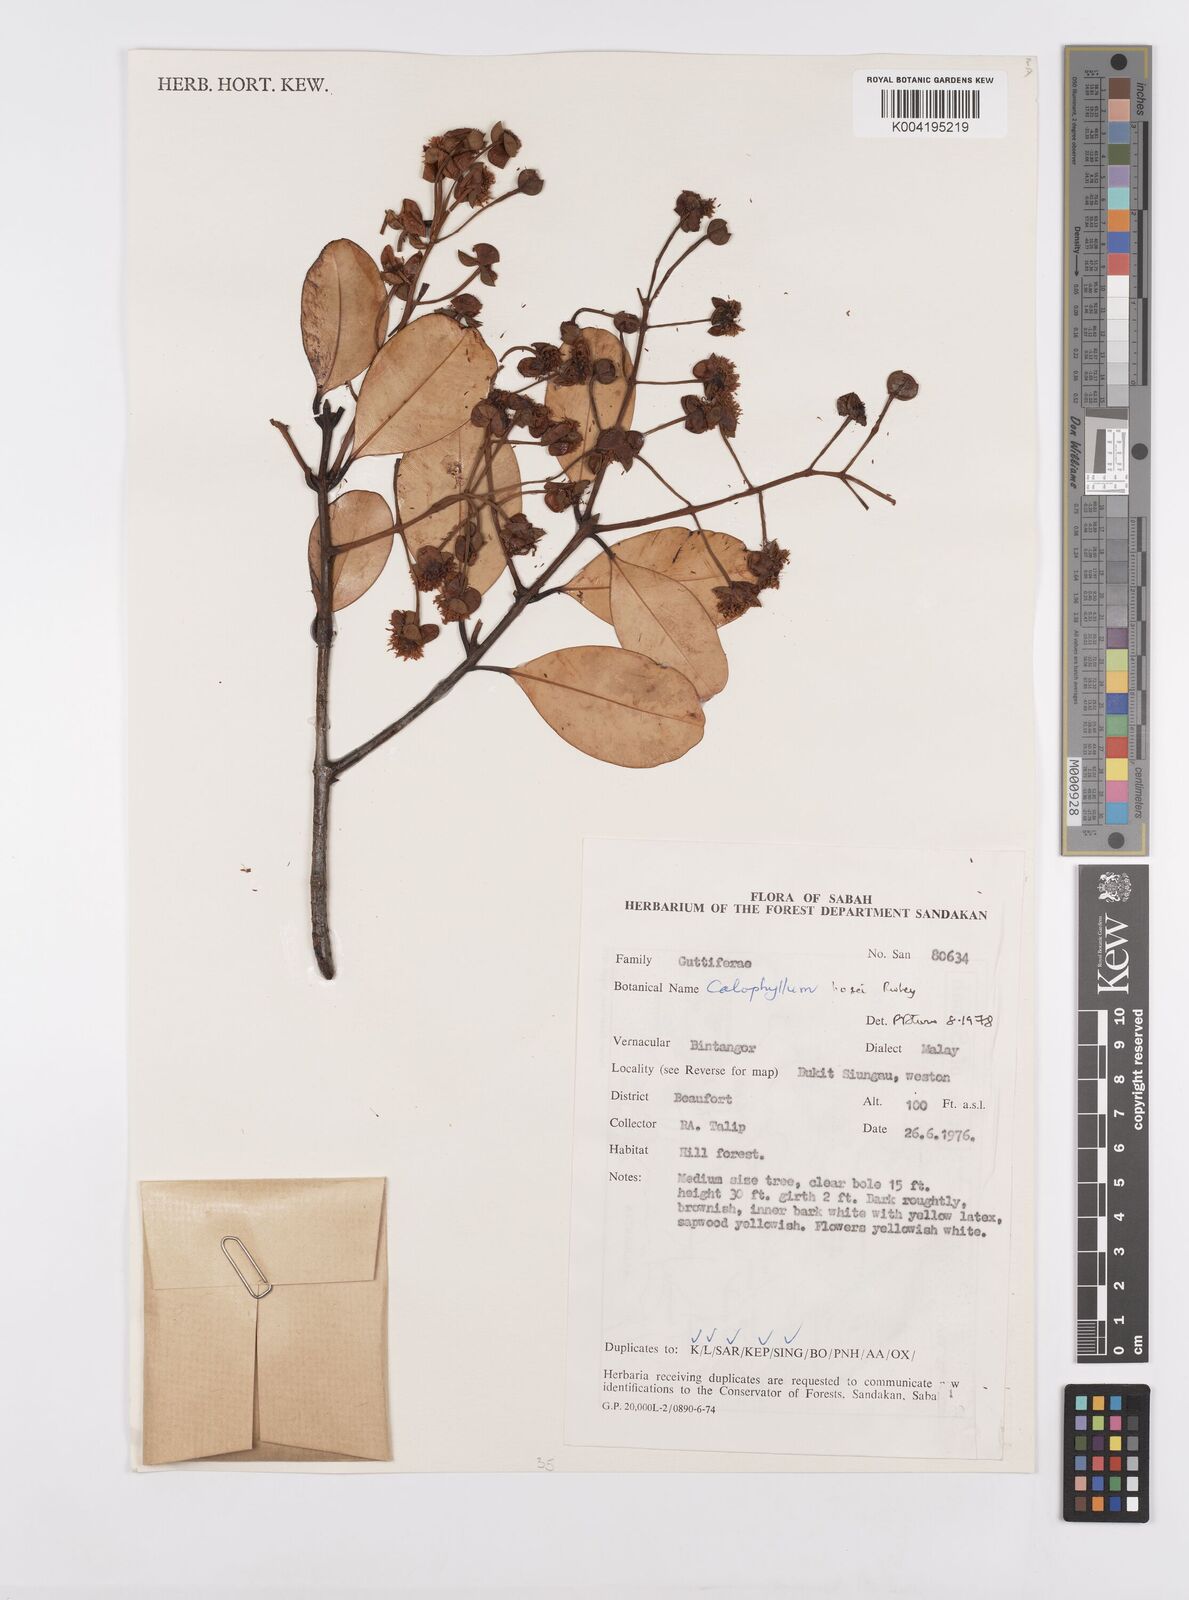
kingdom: Plantae
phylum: Tracheophyta
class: Magnoliopsida
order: Malpighiales
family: Calophyllaceae
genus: Calophyllum
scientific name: Calophyllum hosei
